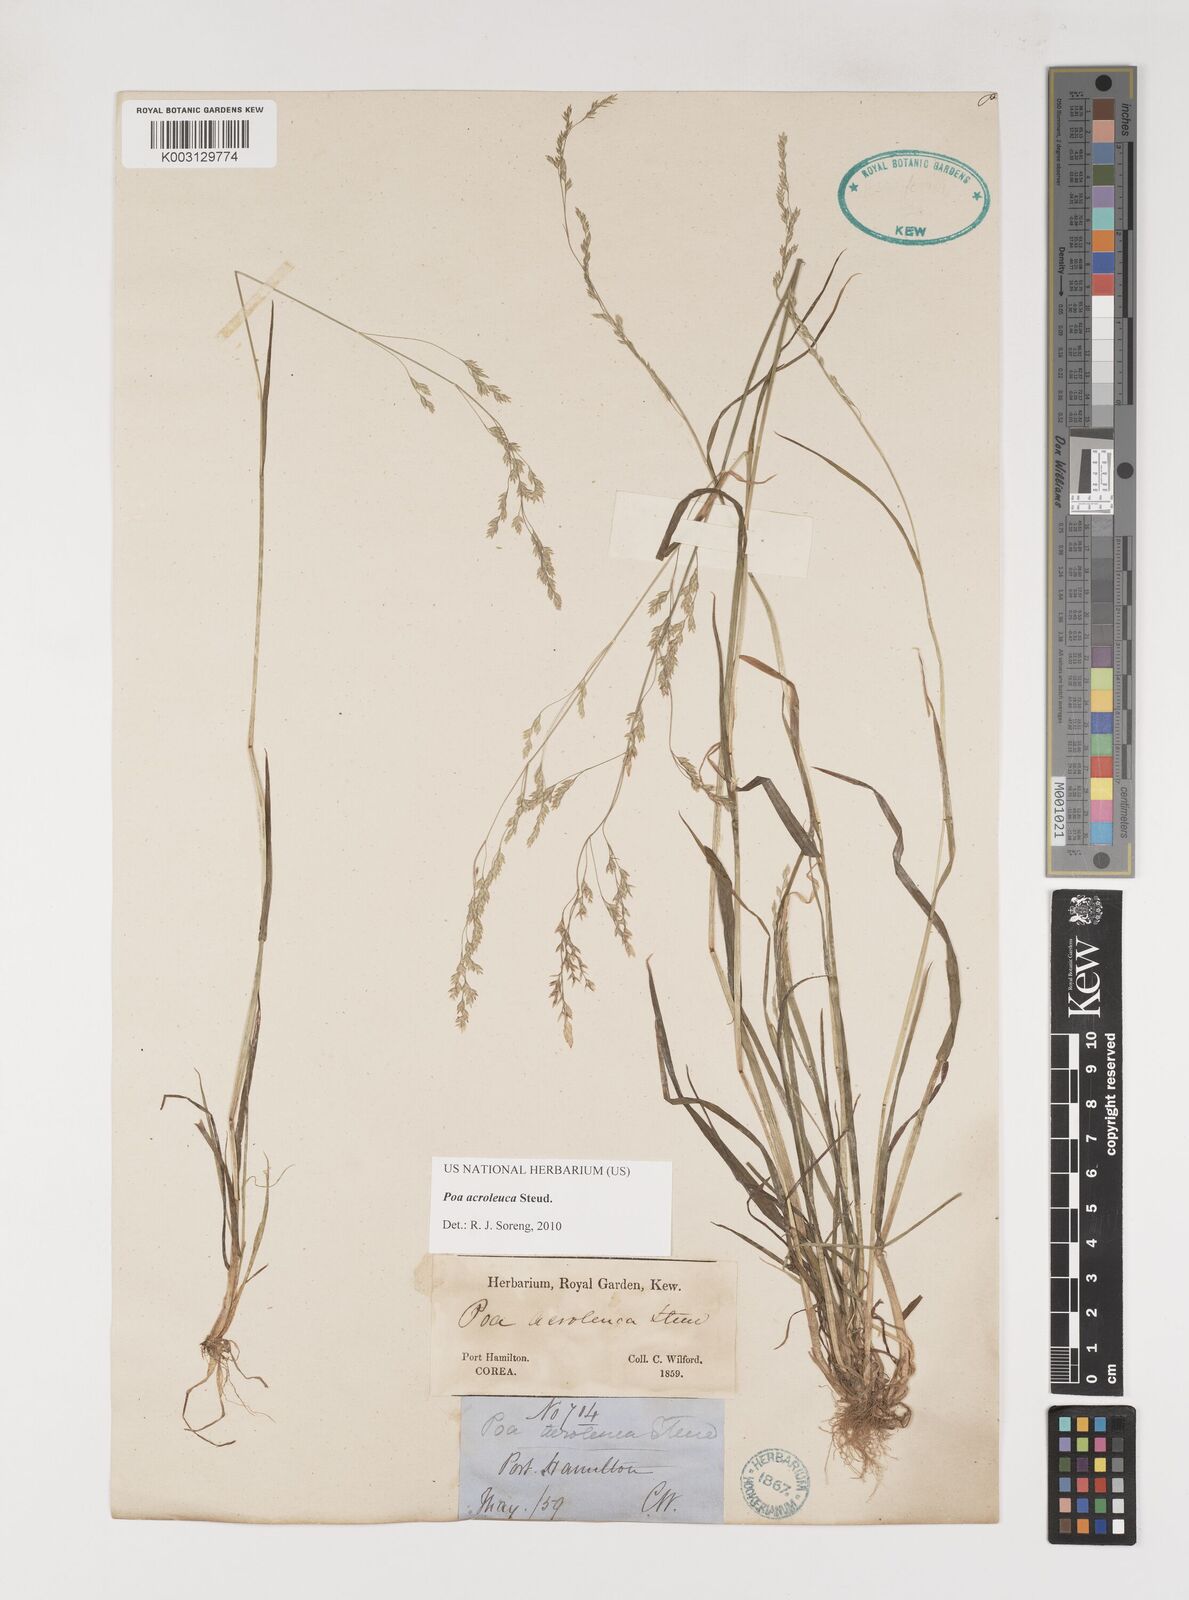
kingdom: Plantae
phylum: Tracheophyta
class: Liliopsida
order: Poales
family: Poaceae
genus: Poa
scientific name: Poa acroleuca
